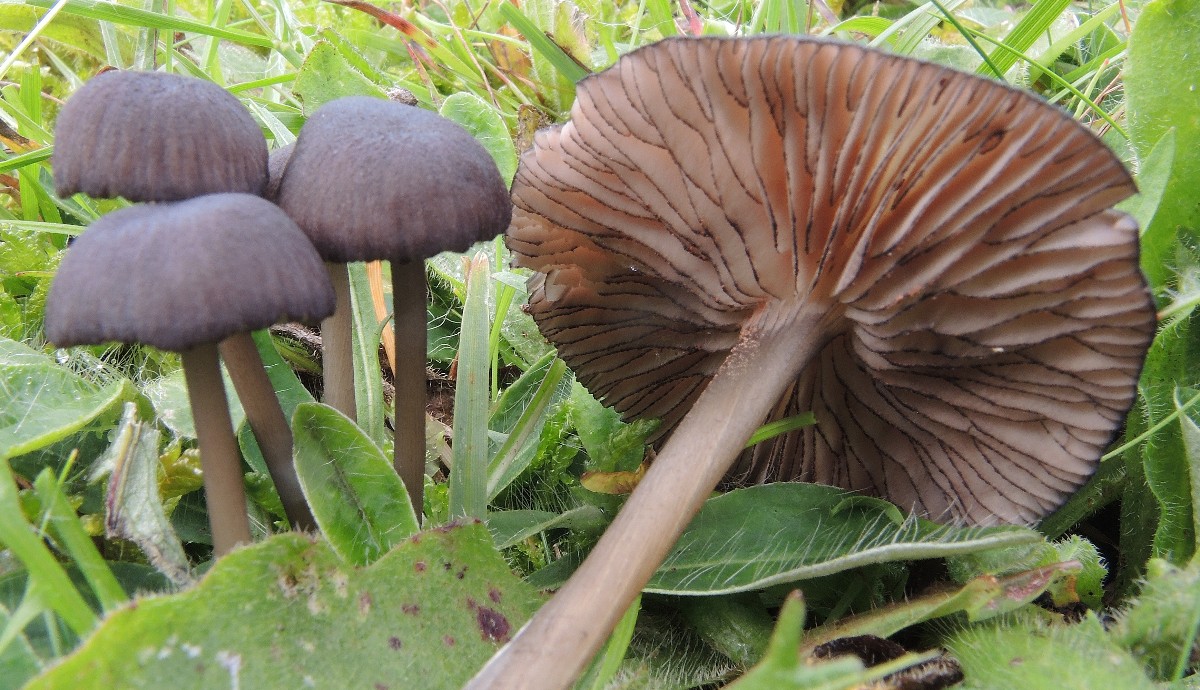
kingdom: Fungi
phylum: Basidiomycota
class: Agaricomycetes
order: Agaricales
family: Entolomataceae
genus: Entoloma
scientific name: Entoloma
